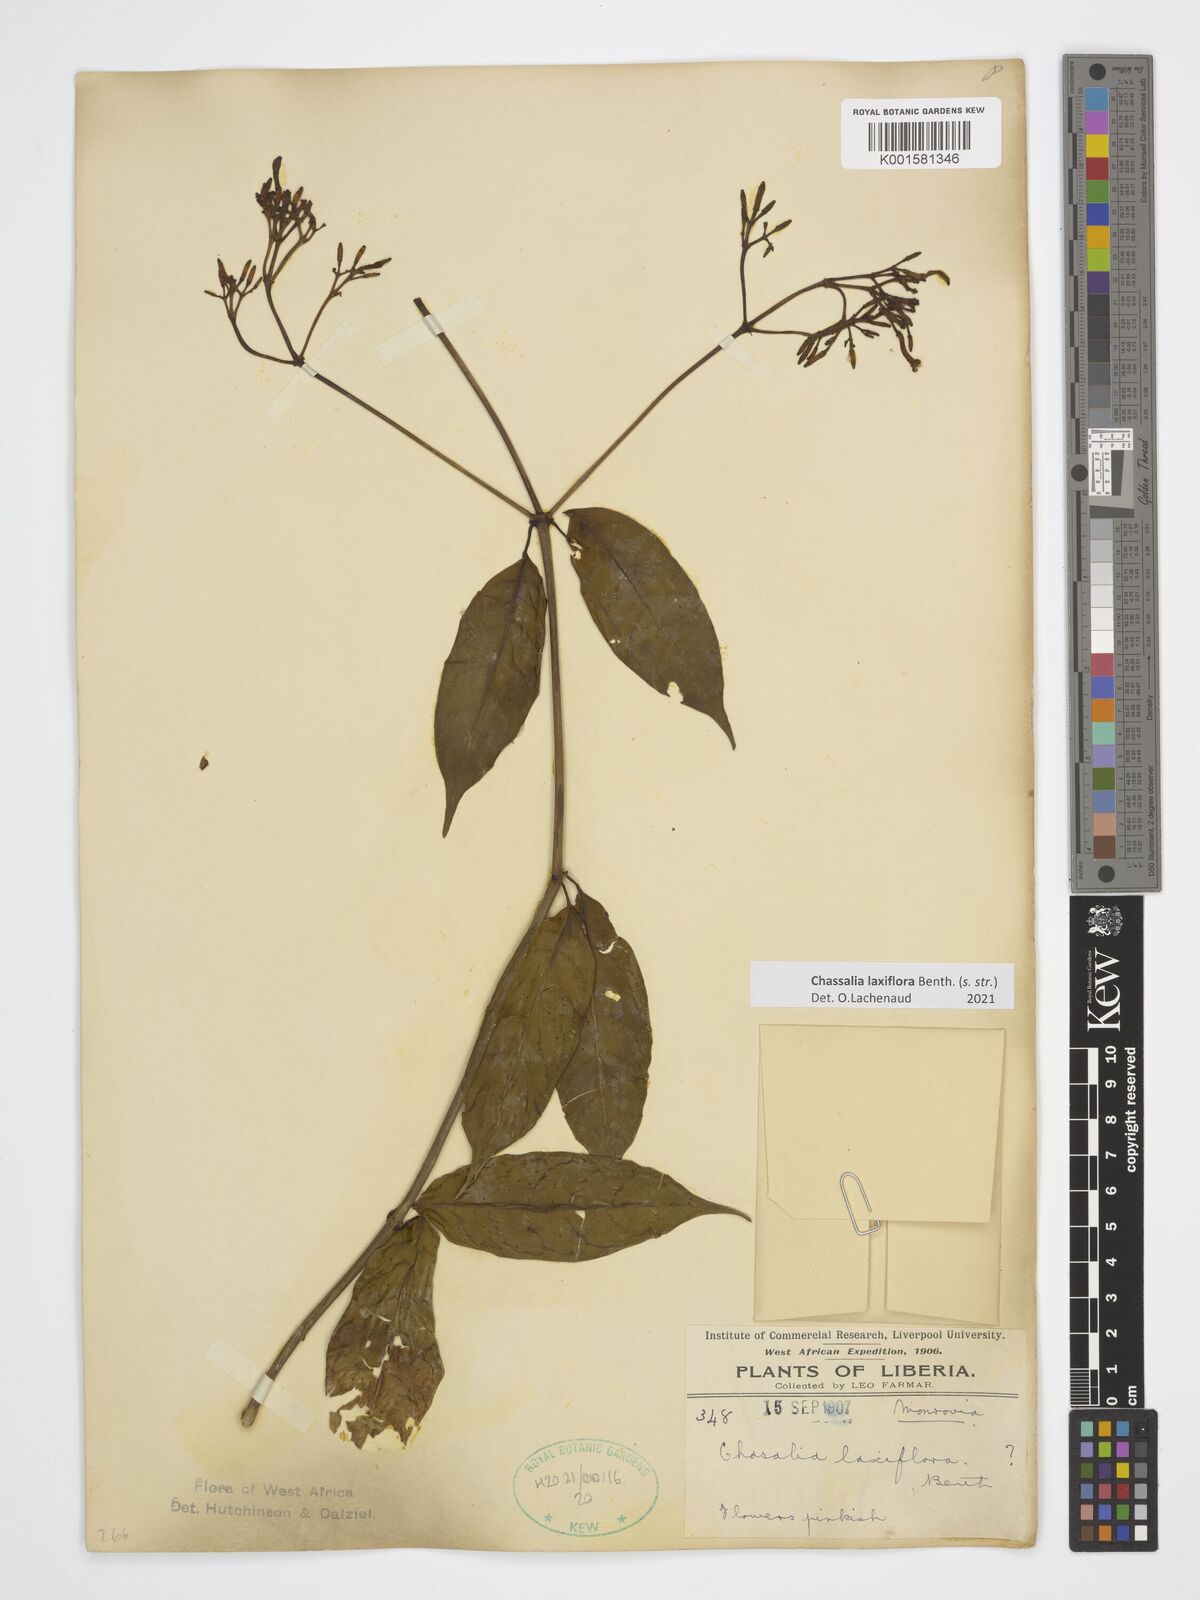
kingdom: Plantae
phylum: Tracheophyta
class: Magnoliopsida
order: Gentianales
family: Rubiaceae
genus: Chassalia
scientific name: Chassalia laxiflora
